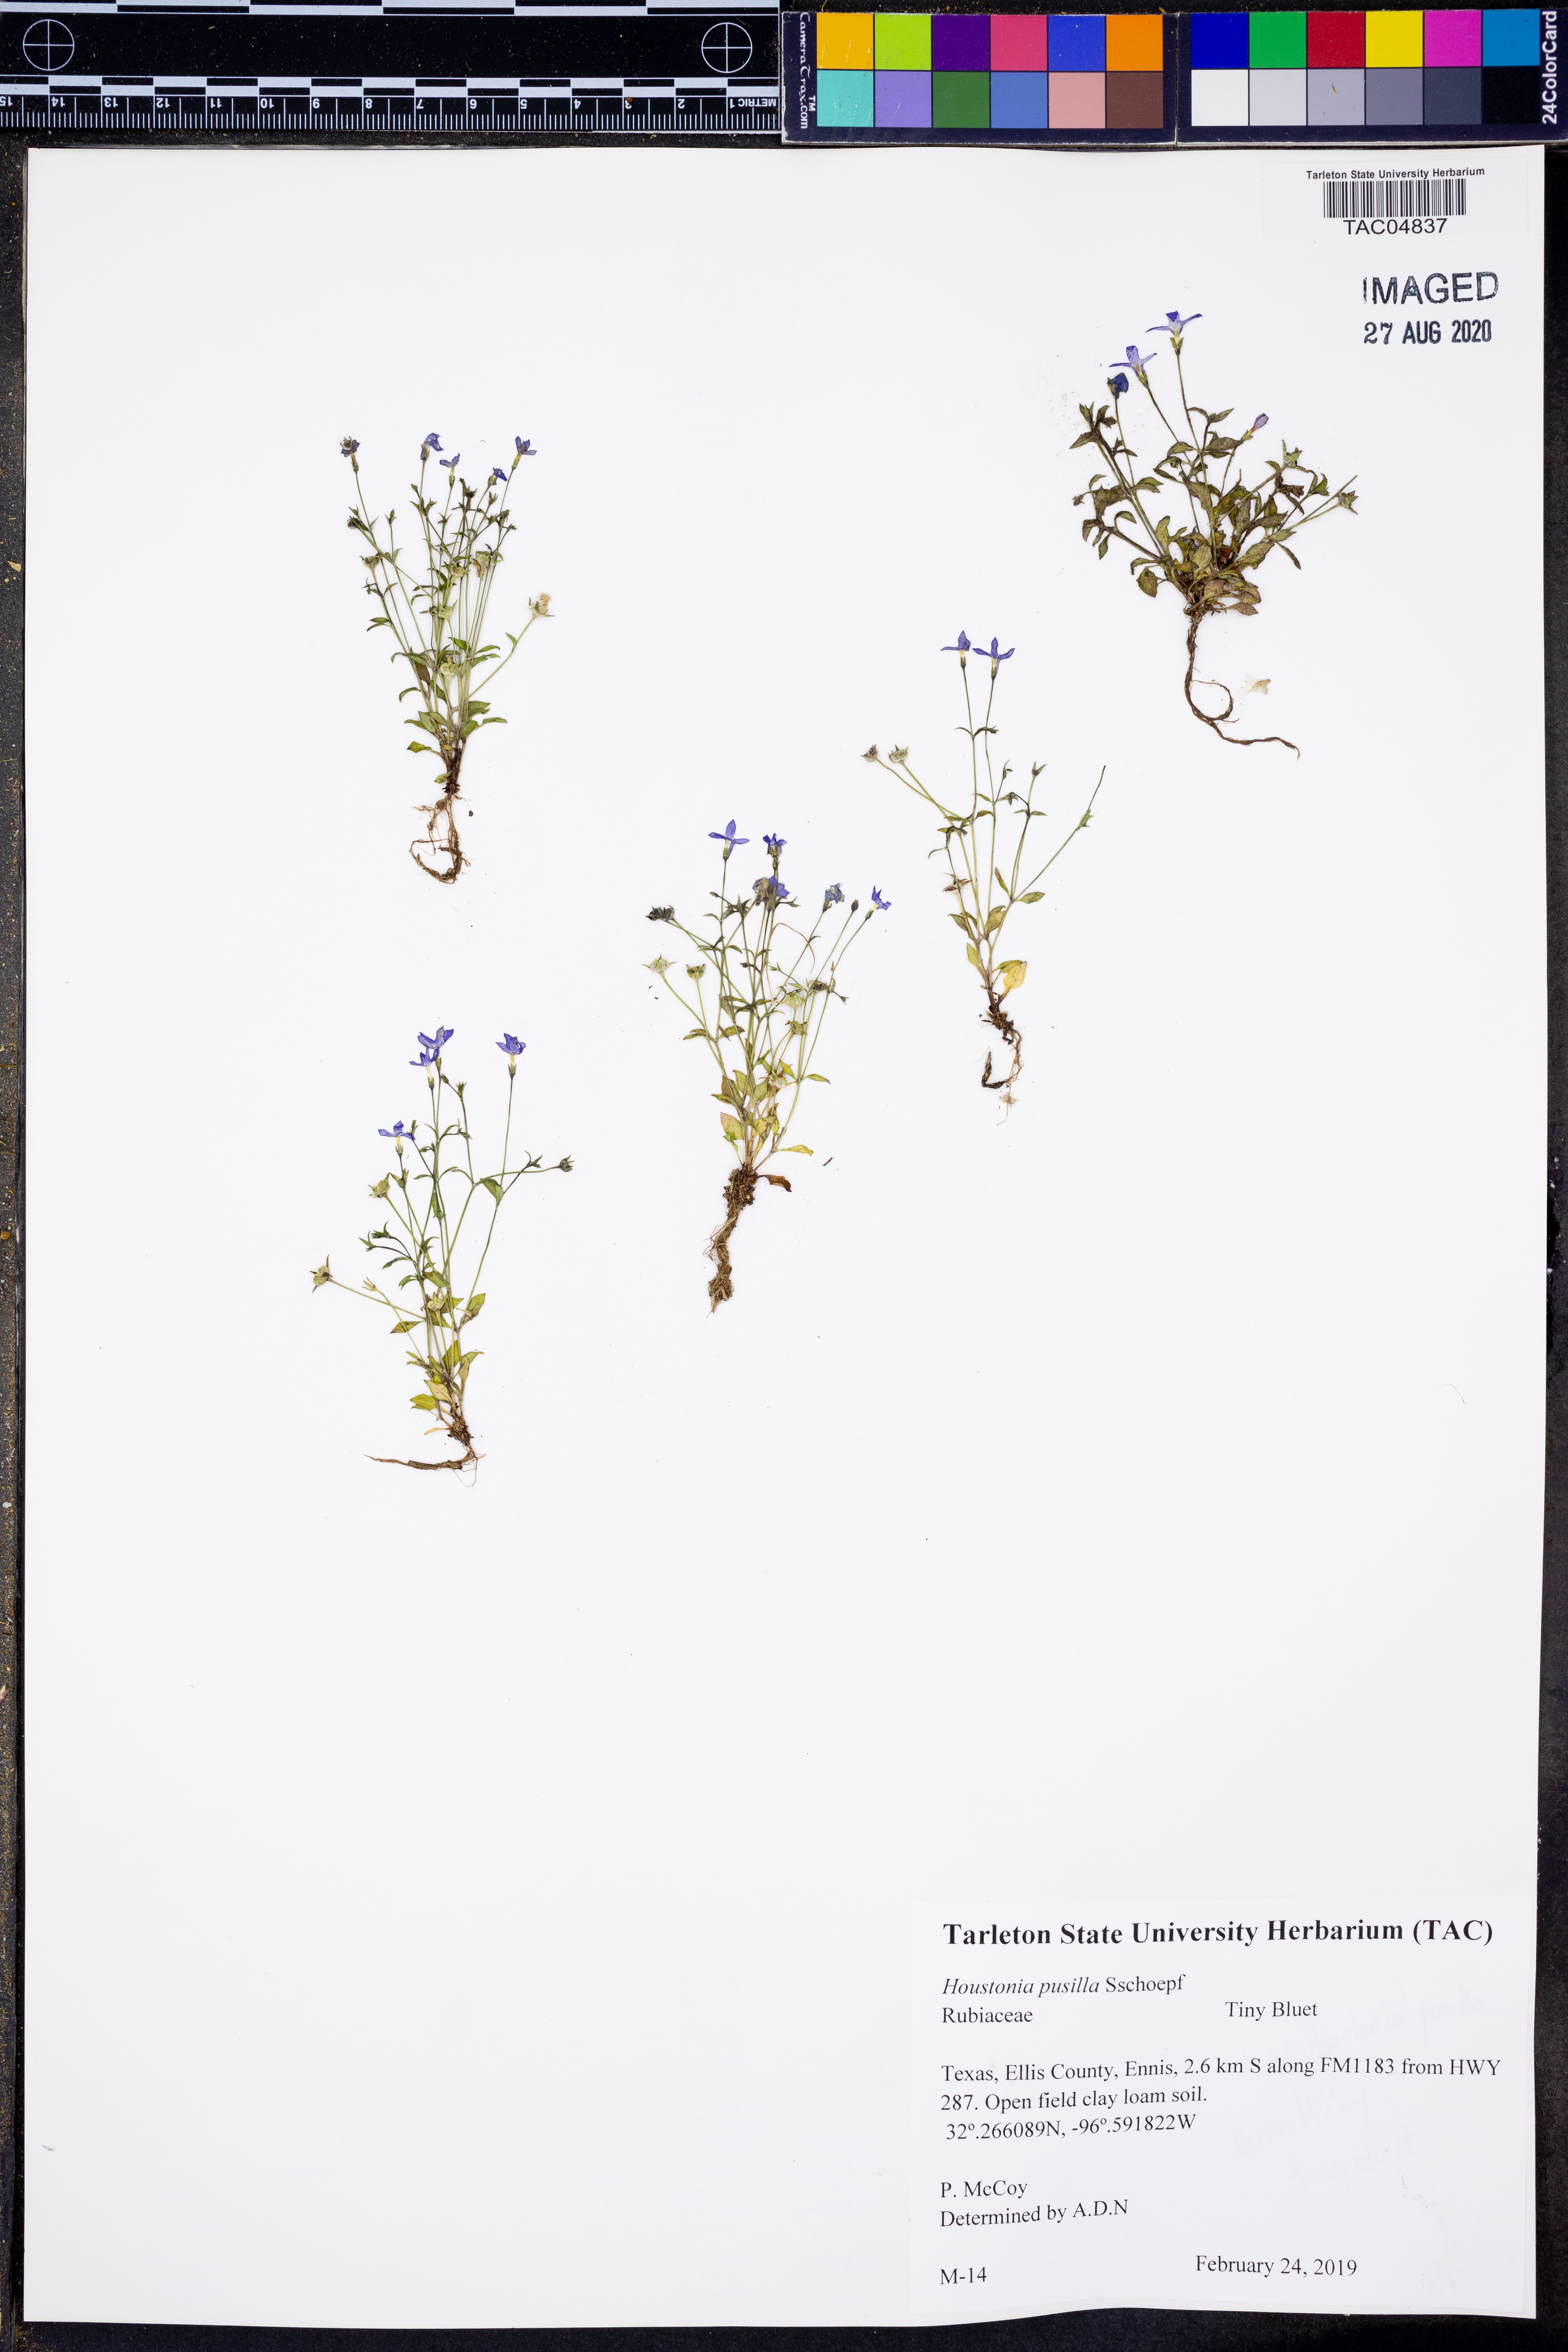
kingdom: Plantae
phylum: Tracheophyta
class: Magnoliopsida
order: Gentianales
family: Rubiaceae
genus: Houstonia
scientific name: Houstonia pusilla
